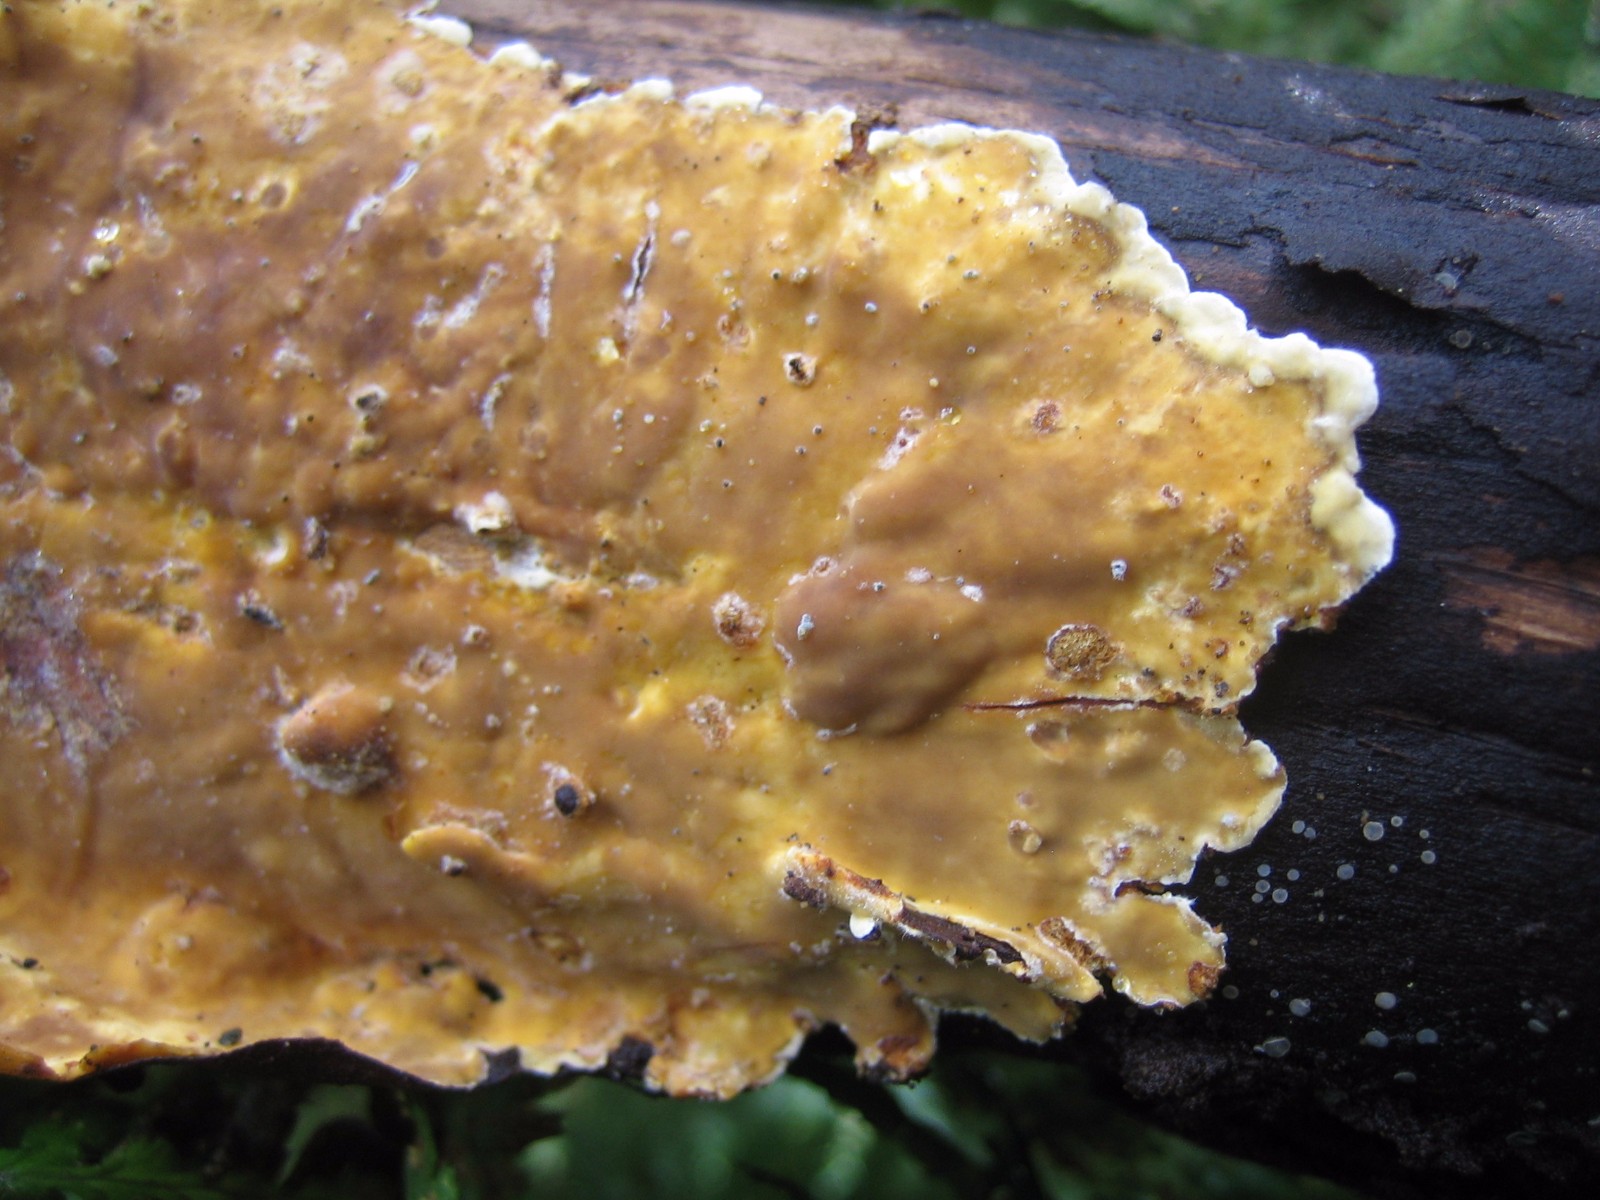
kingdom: Fungi
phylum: Basidiomycota
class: Agaricomycetes
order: Russulales
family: Stereaceae
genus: Stereum
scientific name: Stereum hirsutum
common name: håret lædersvamp
